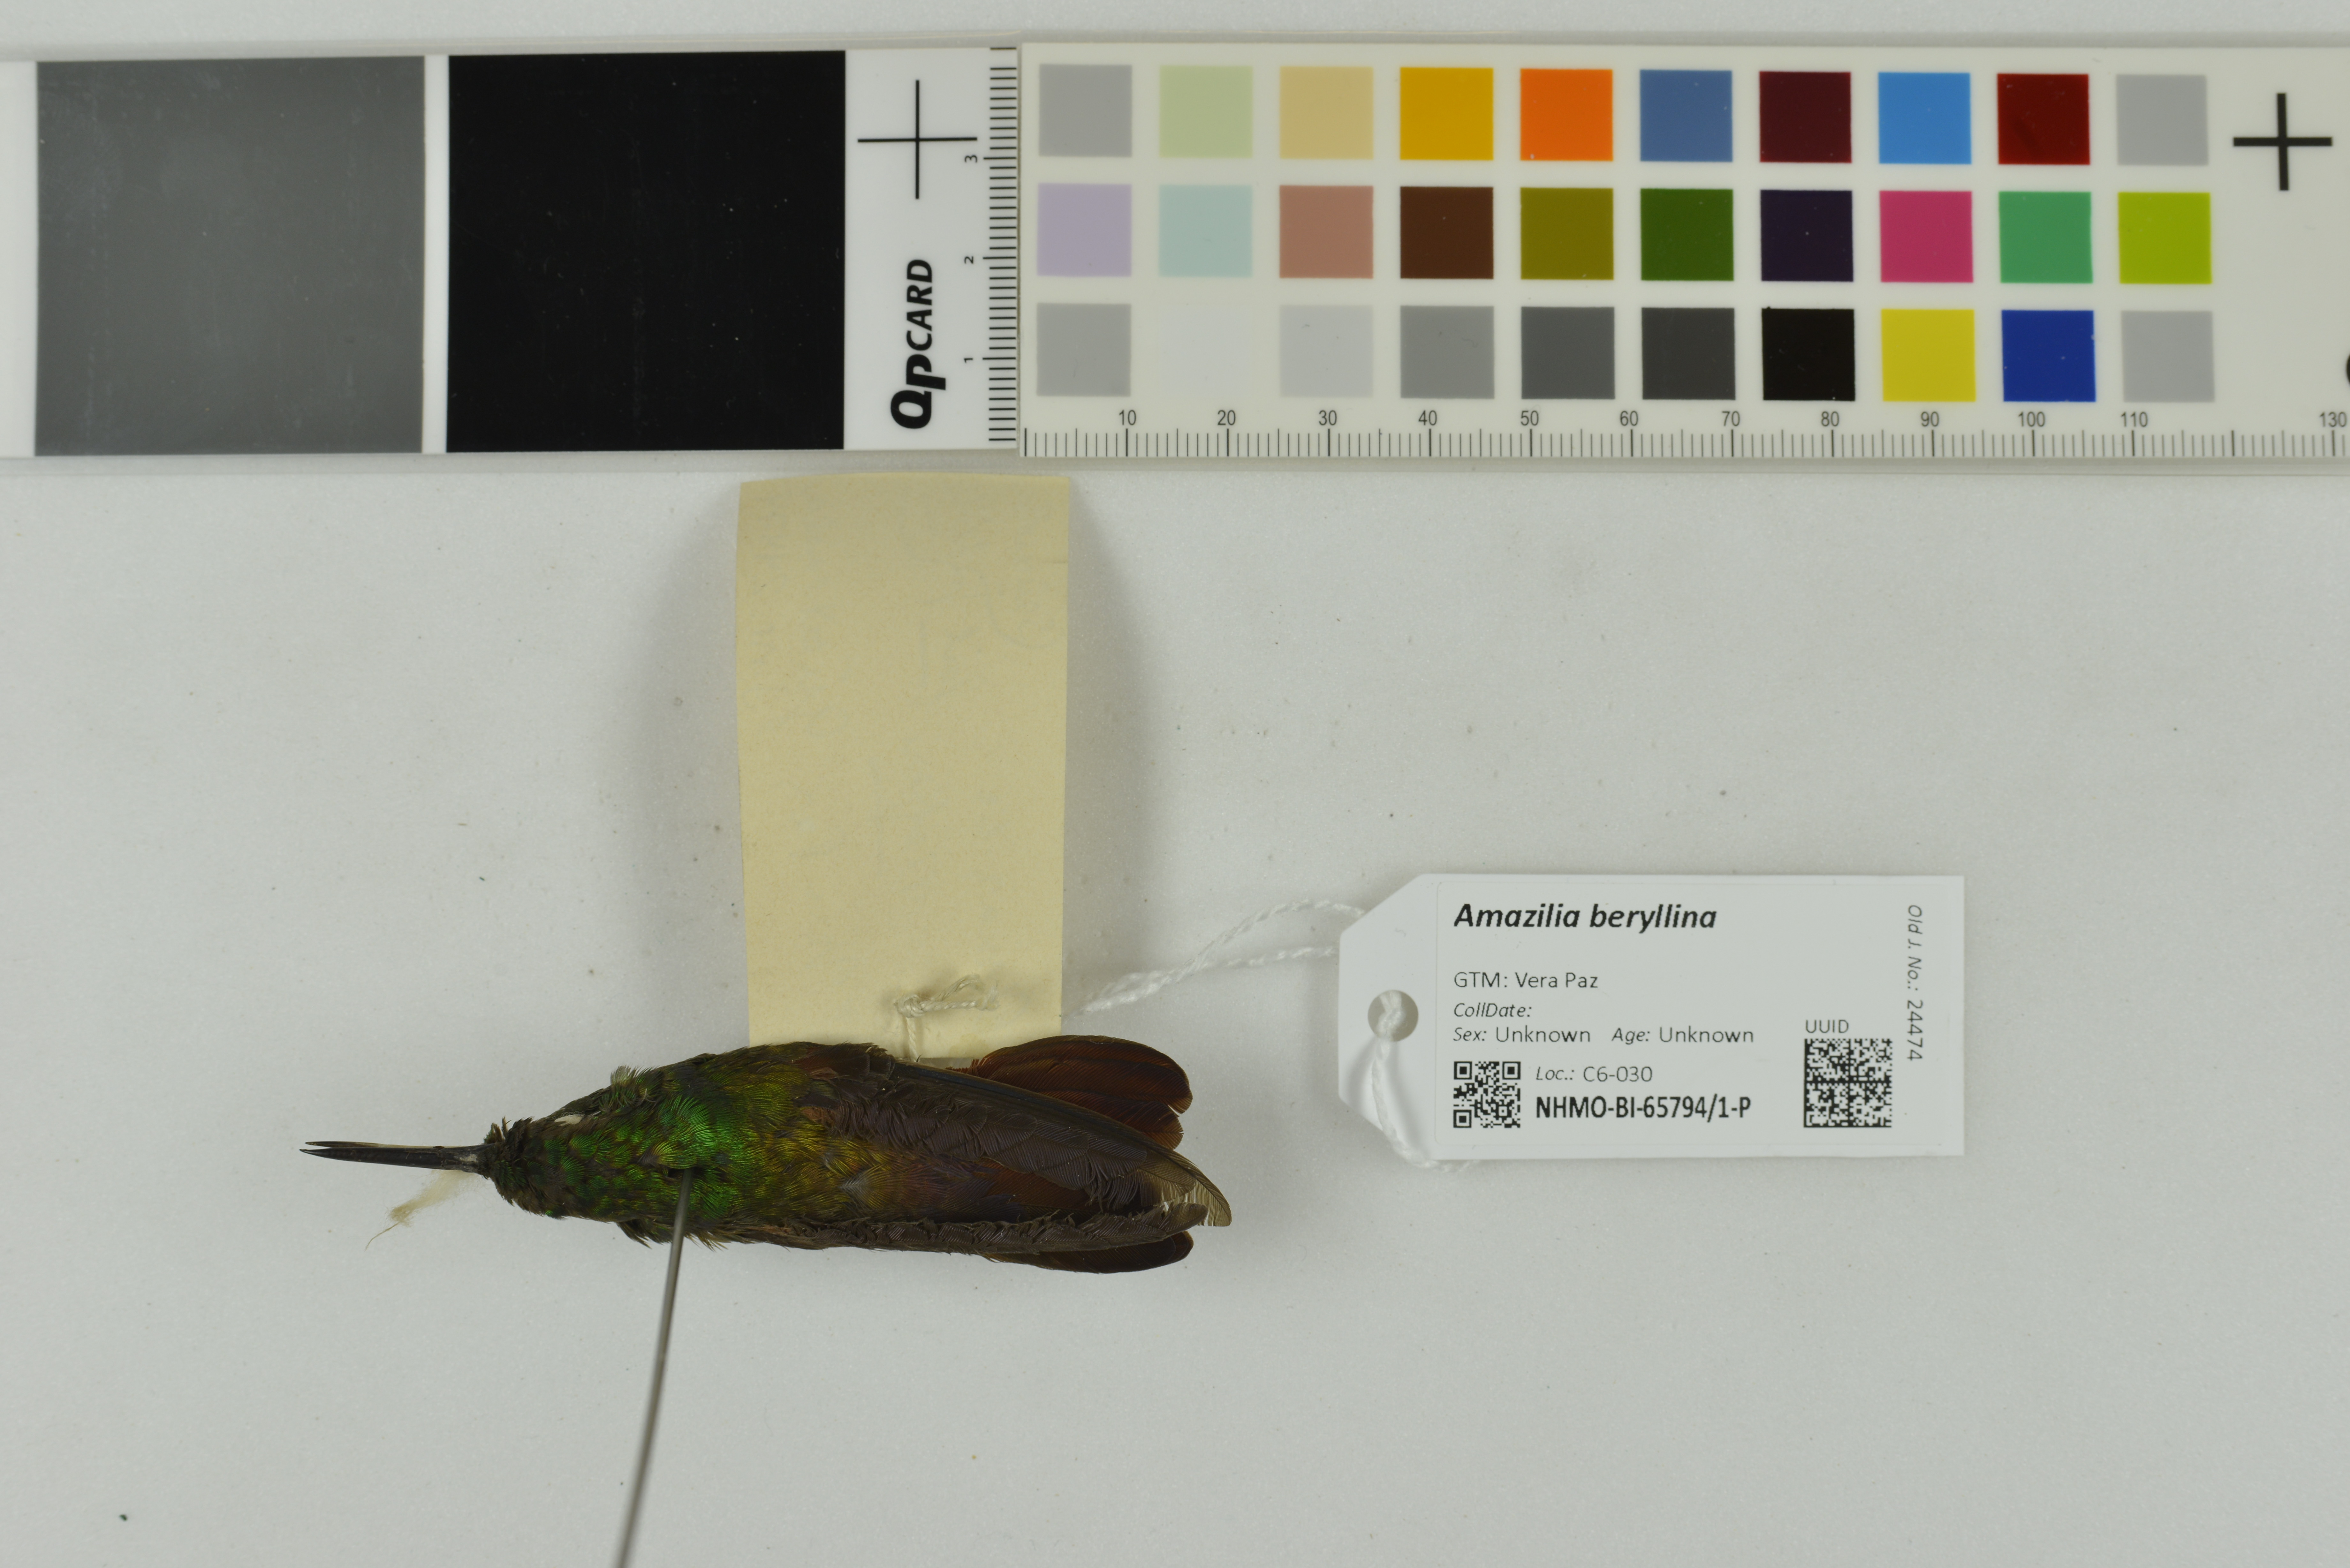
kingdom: Animalia
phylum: Chordata
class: Aves
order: Apodiformes
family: Trochilidae
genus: Saucerottia
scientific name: Saucerottia beryllina
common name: Berylline hummingbird
